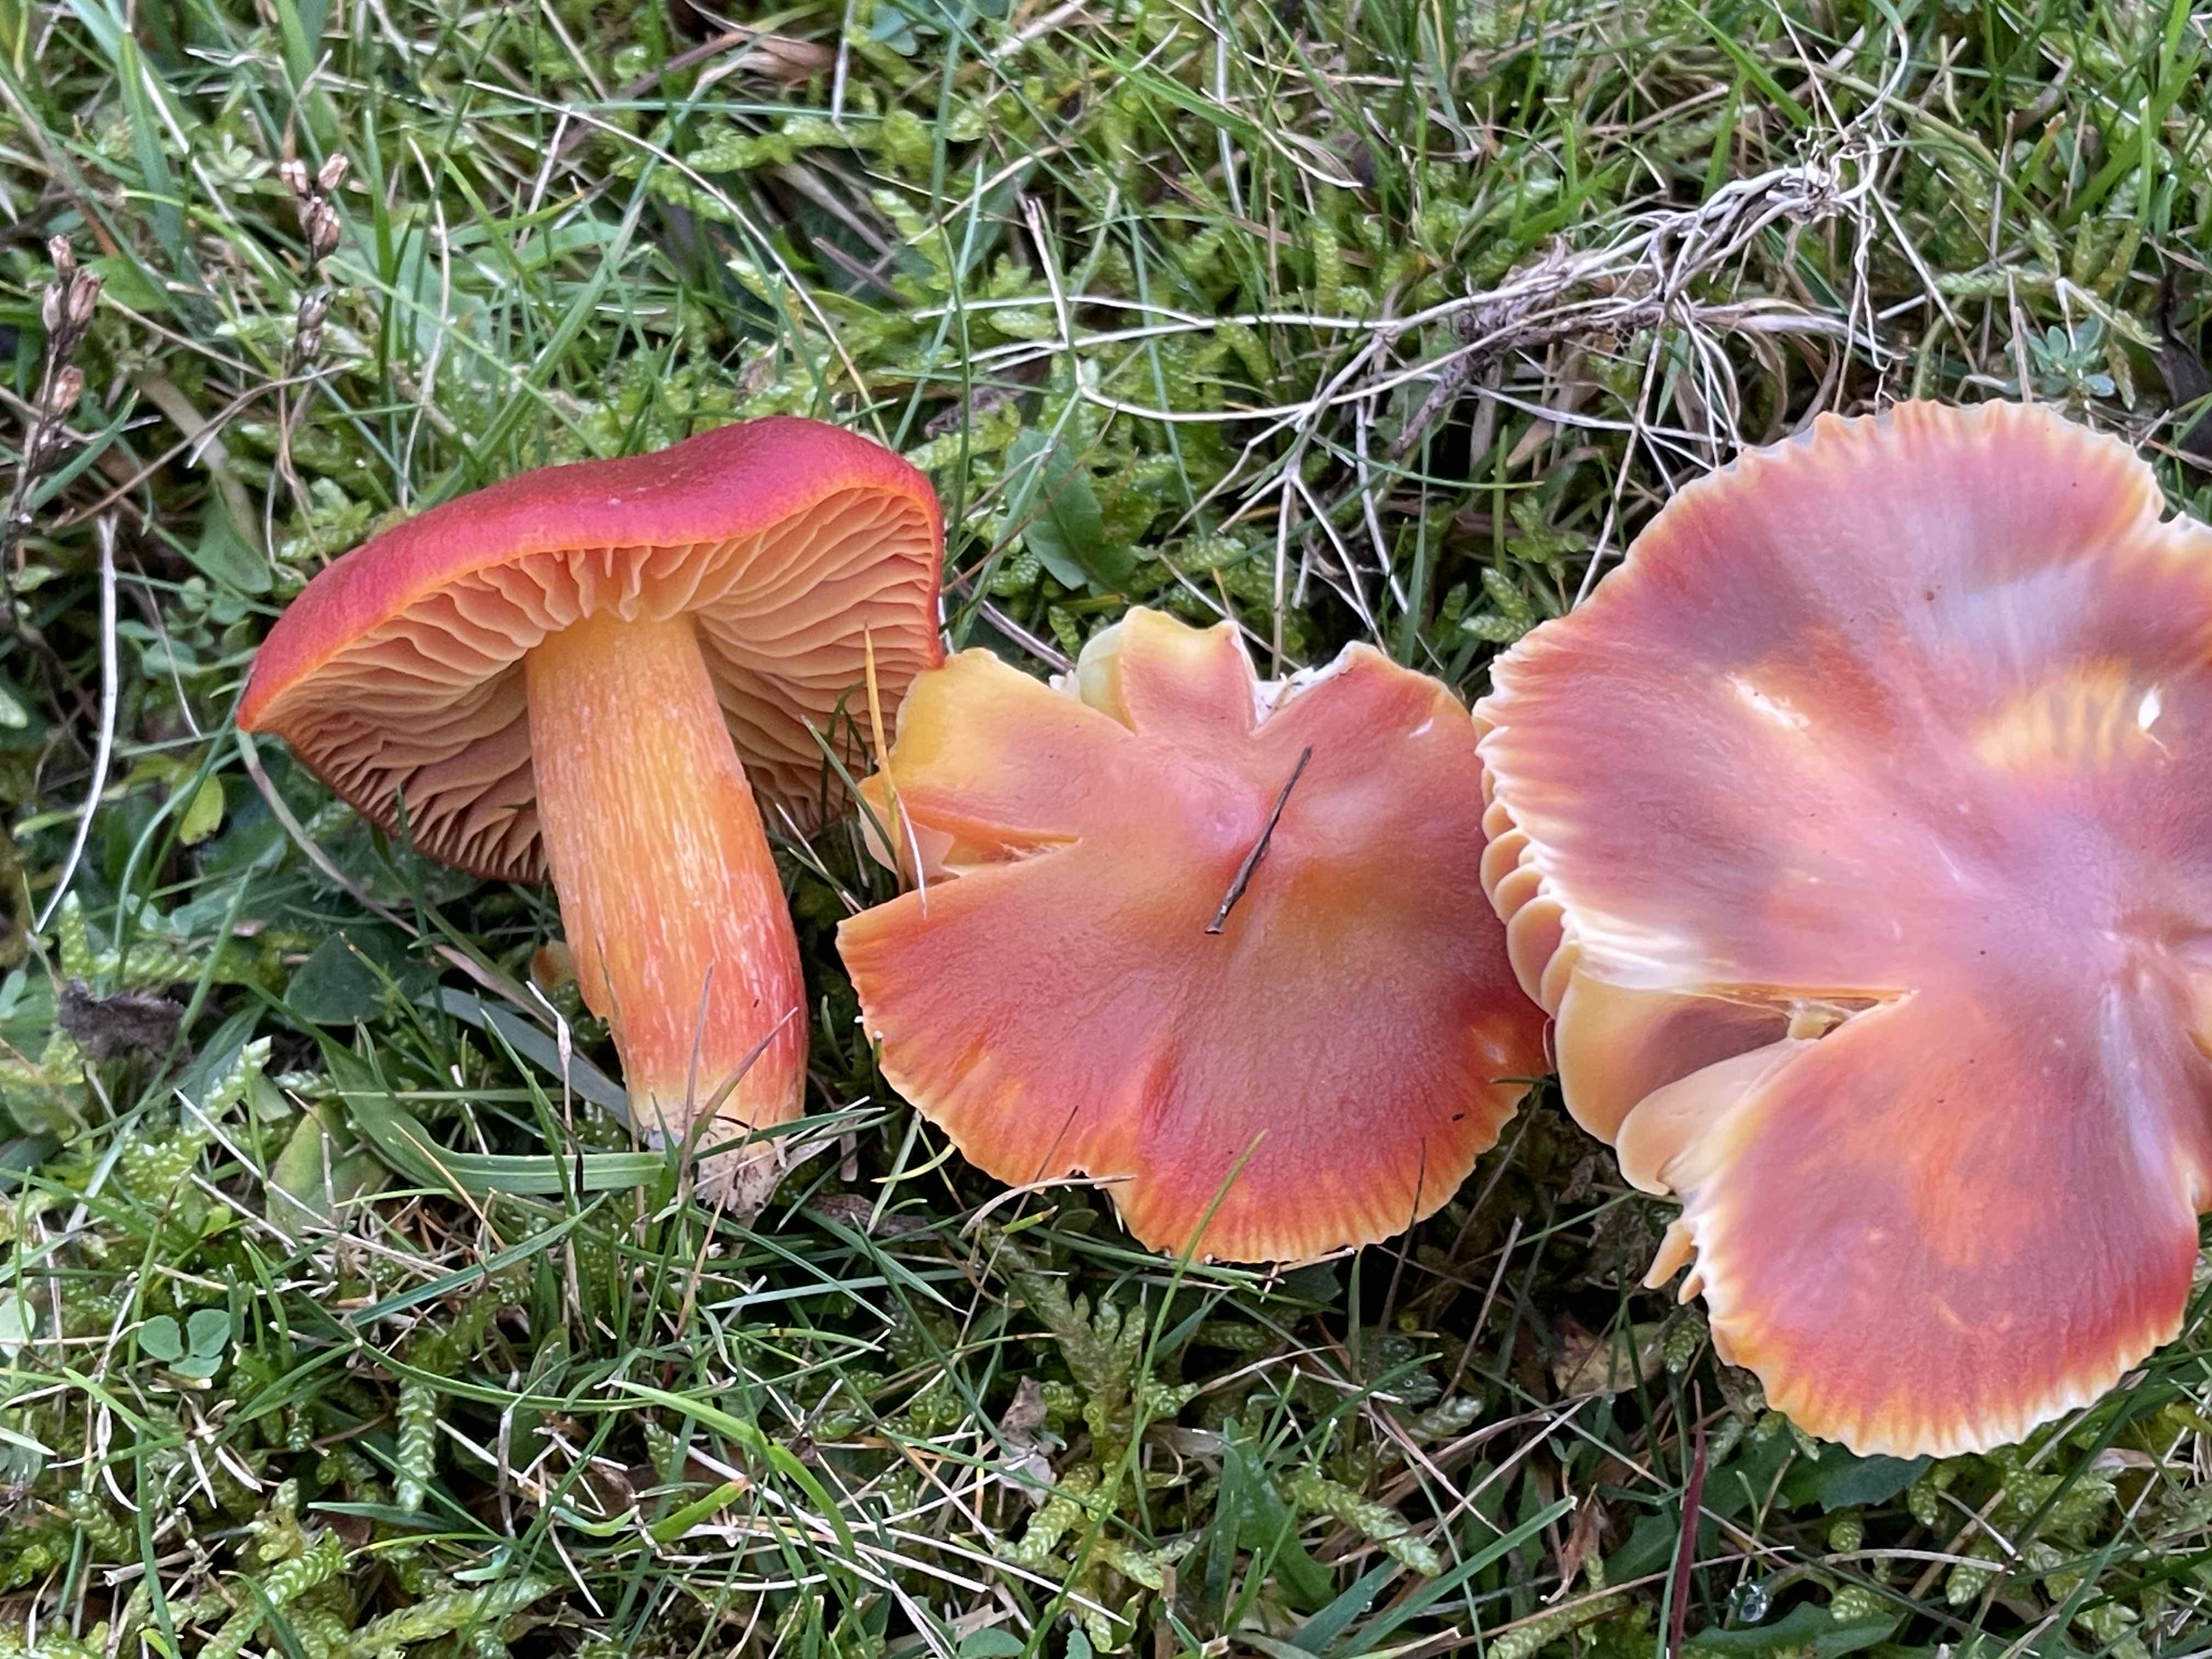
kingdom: Fungi
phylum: Basidiomycota
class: Agaricomycetes
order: Agaricales
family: Hygrophoraceae
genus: Hygrocybe
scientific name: Hygrocybe punicea
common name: skarlagen-vokshat
